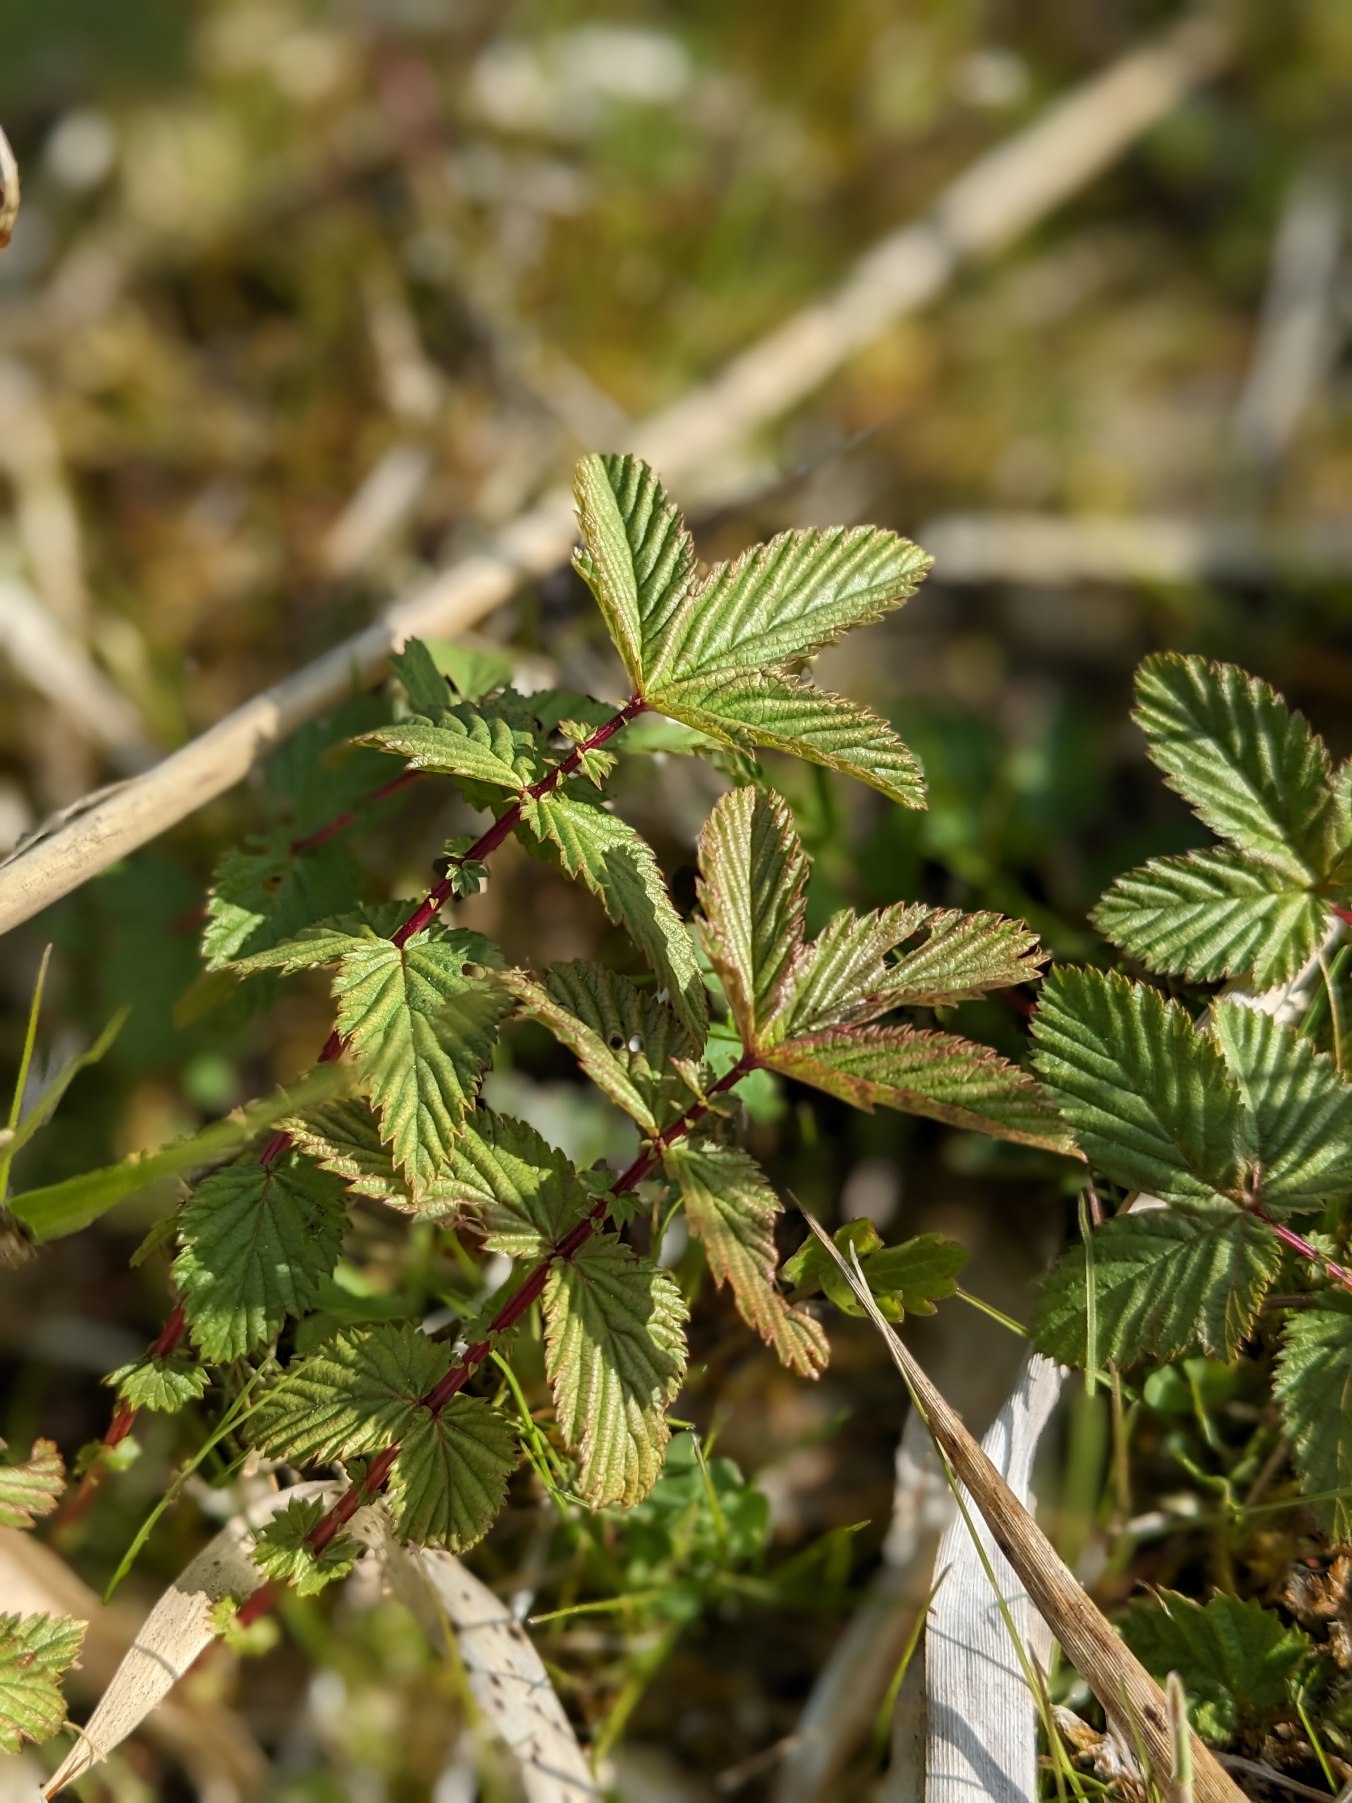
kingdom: Plantae
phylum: Tracheophyta
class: Magnoliopsida
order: Rosales
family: Rosaceae
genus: Filipendula
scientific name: Filipendula ulmaria
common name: Almindelig mjødurt
